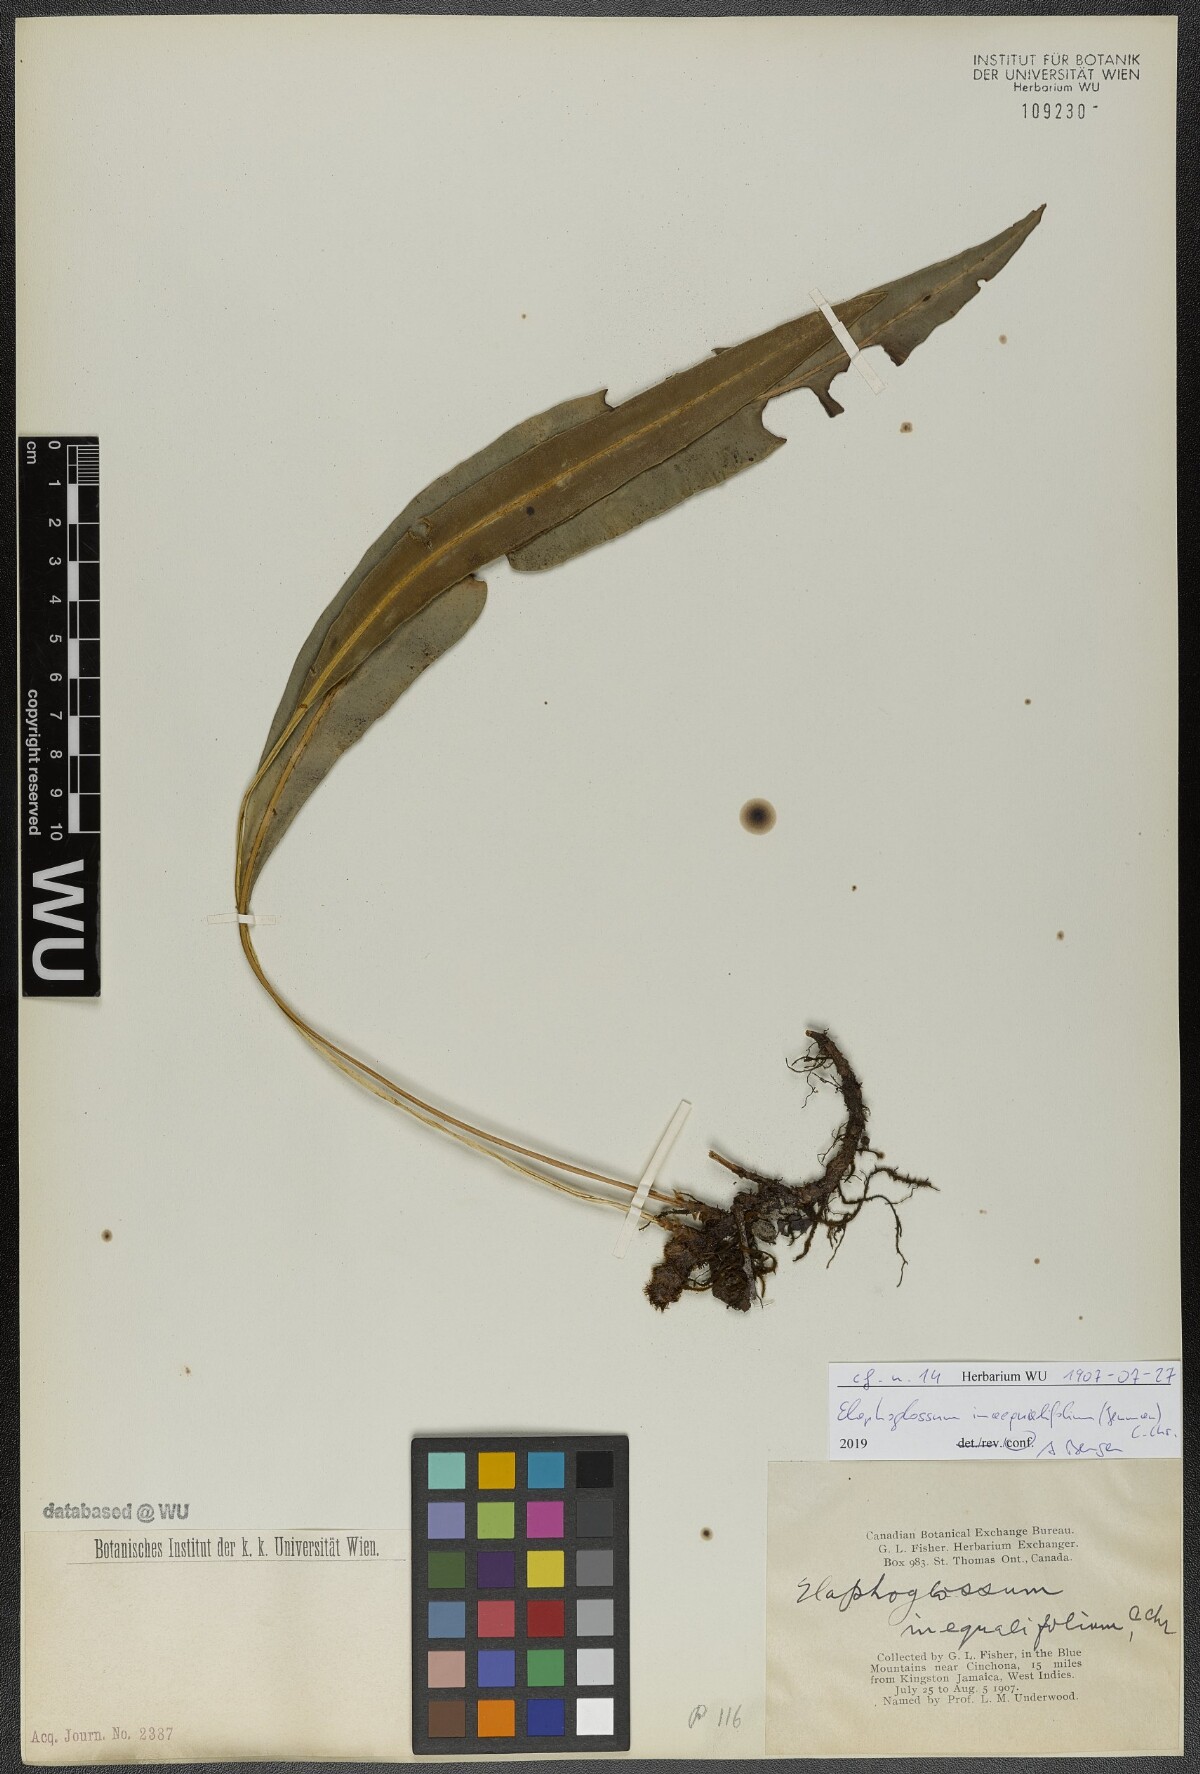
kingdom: Plantae
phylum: Tracheophyta
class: Polypodiopsida
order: Polypodiales
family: Dryopteridaceae
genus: Elaphoglossum
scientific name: Elaphoglossum inaequalifolium
